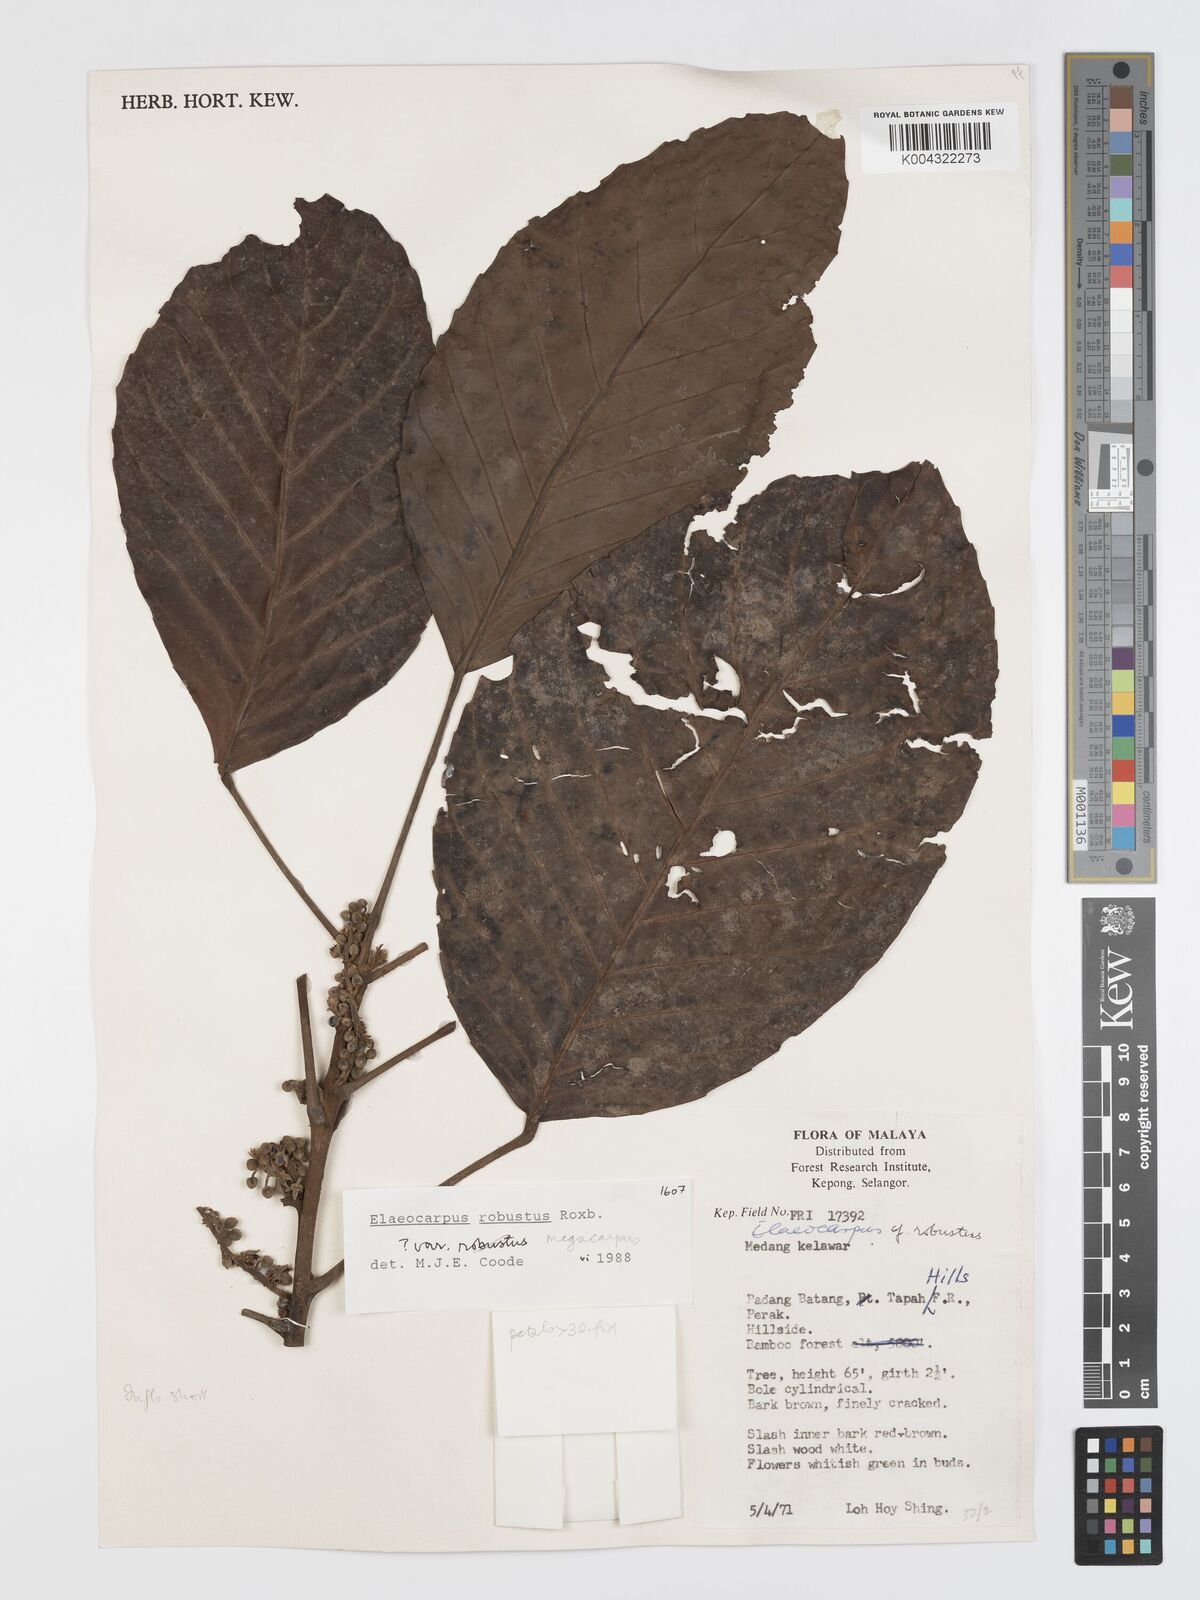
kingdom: Plantae
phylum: Tracheophyta
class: Magnoliopsida
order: Oxalidales
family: Elaeocarpaceae
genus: Elaeocarpus
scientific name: Elaeocarpus robustus
